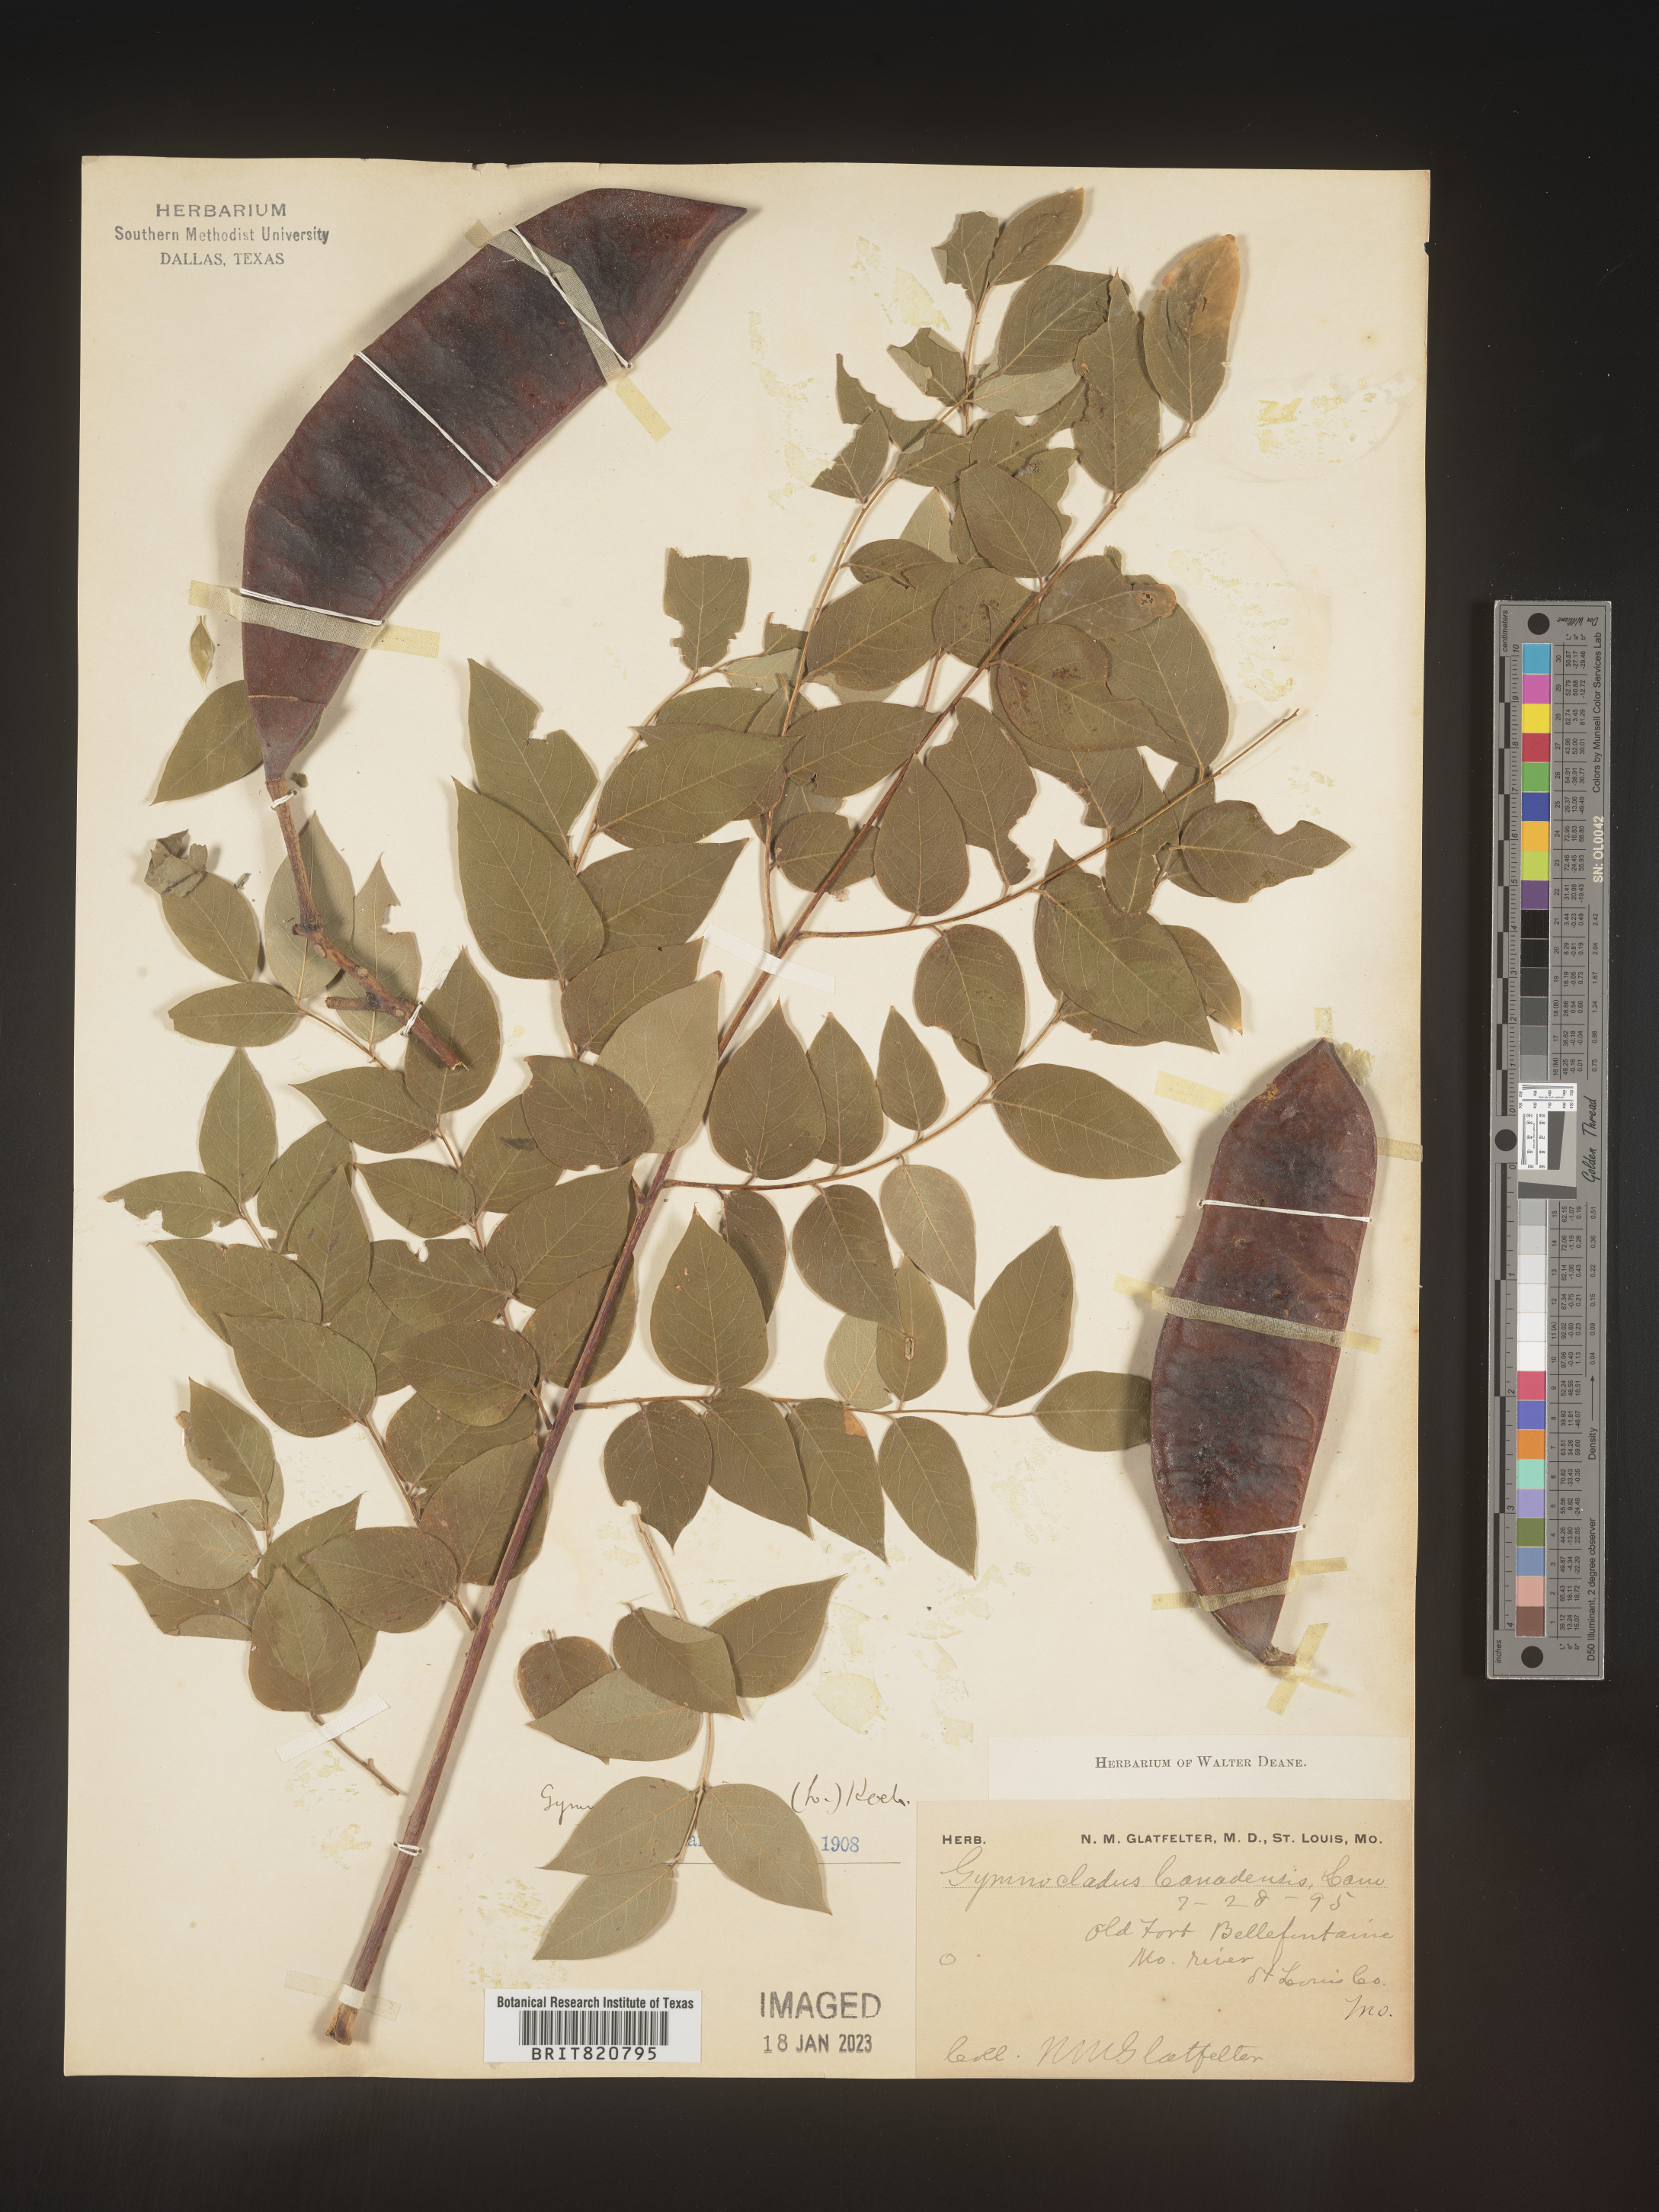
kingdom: Plantae
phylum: Tracheophyta
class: Magnoliopsida
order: Fabales
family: Fabaceae
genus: Gymnocladus
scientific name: Gymnocladus dioicus
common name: Kentucky coffee-tree
